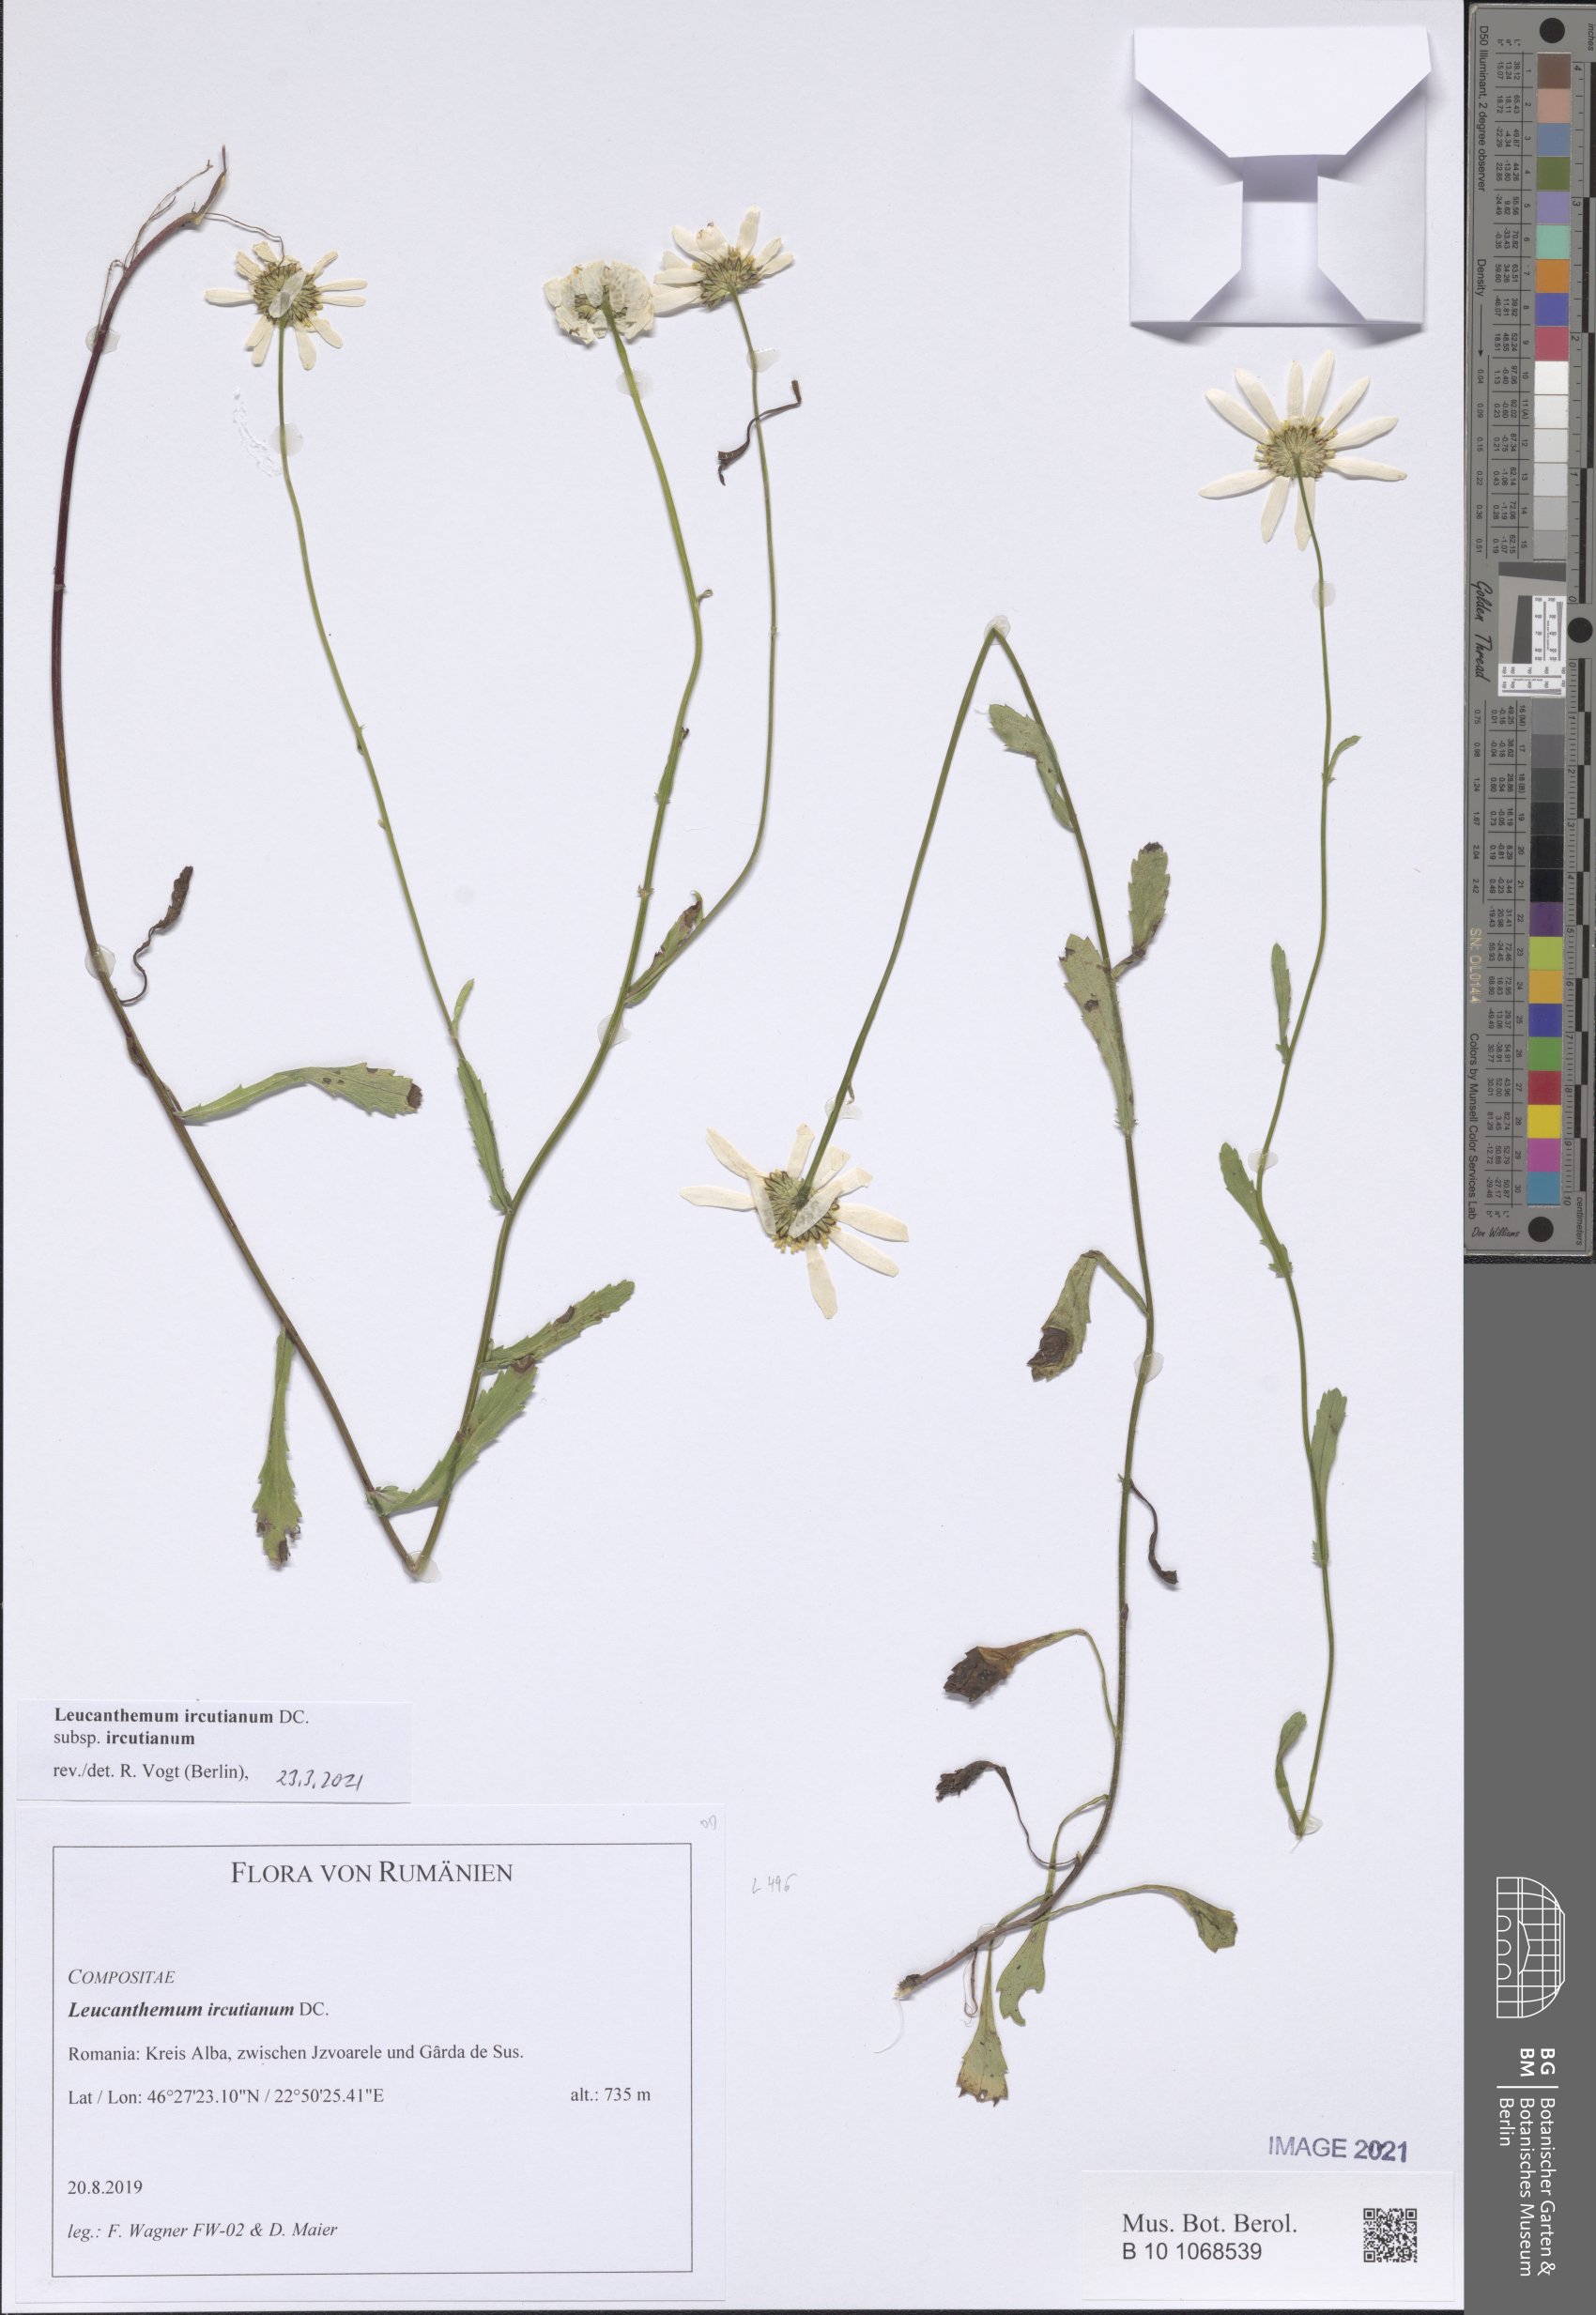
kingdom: Plantae
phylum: Tracheophyta
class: Magnoliopsida
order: Asterales
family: Asteraceae
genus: Leucanthemum
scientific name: Leucanthemum ircutianum
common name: Daisy
